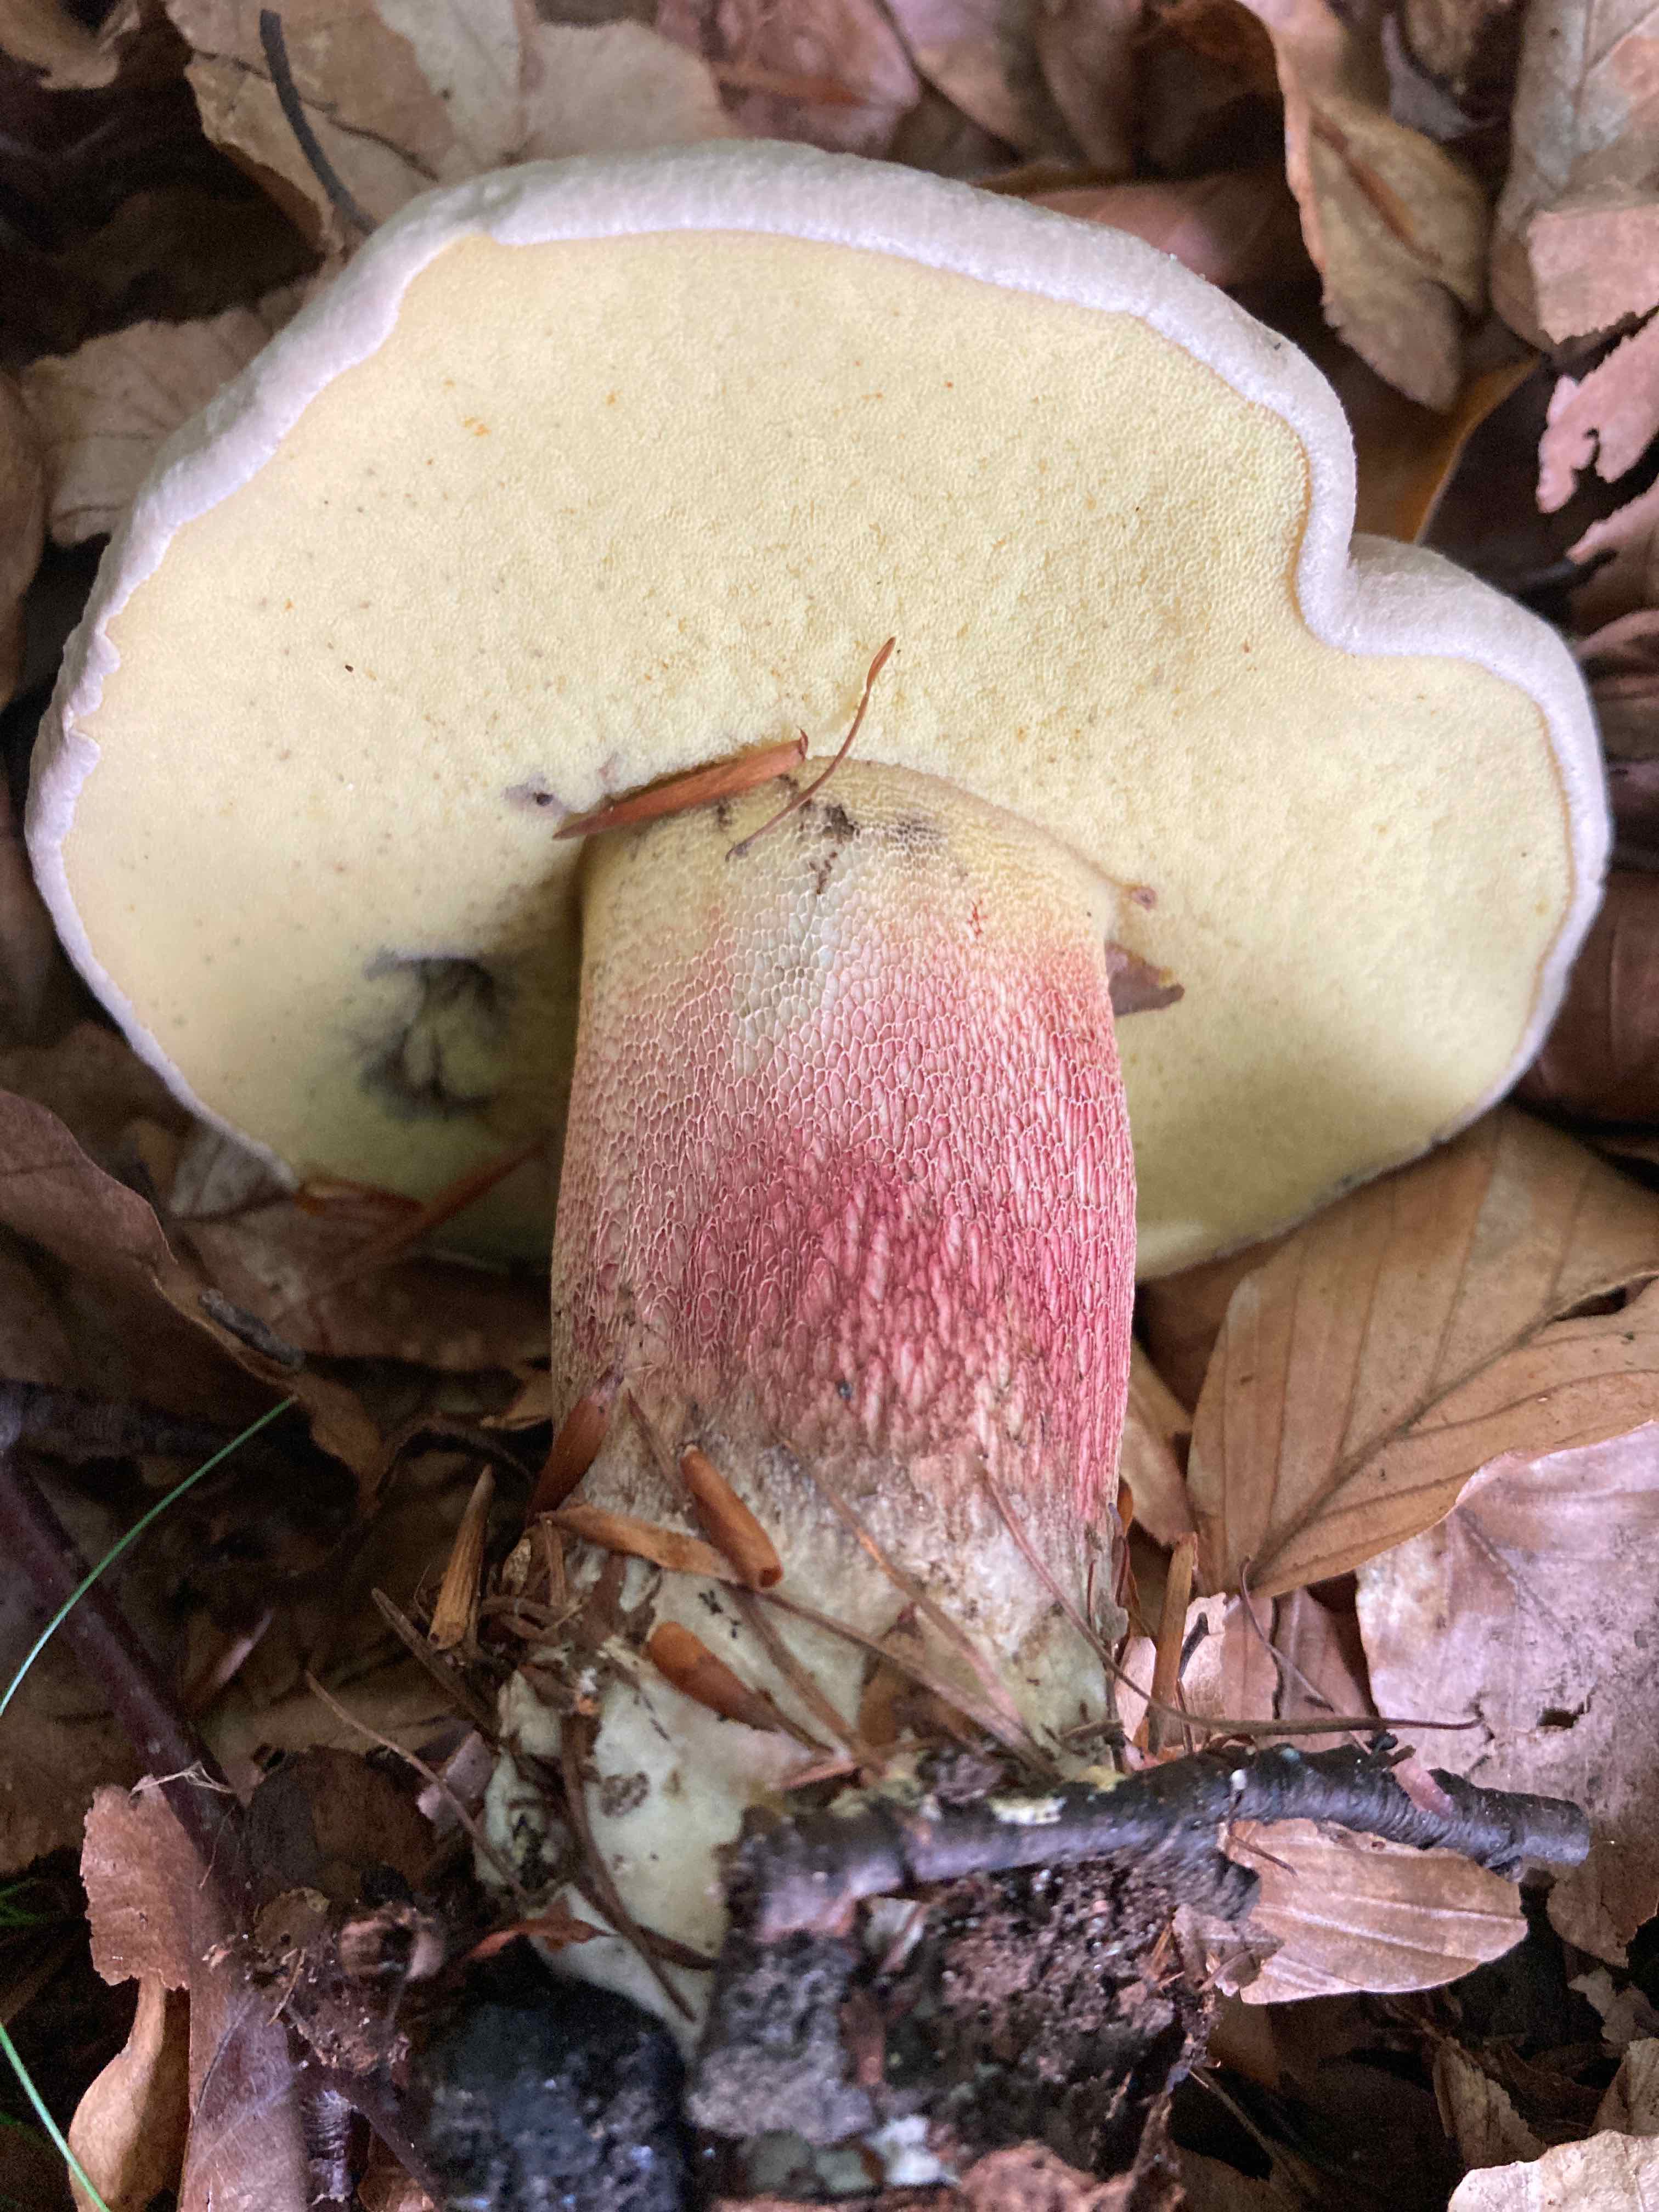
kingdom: Fungi
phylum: Basidiomycota
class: Agaricomycetes
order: Boletales
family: Boletaceae
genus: Caloboletus
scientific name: Caloboletus calopus
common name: skønfodet rørhat
